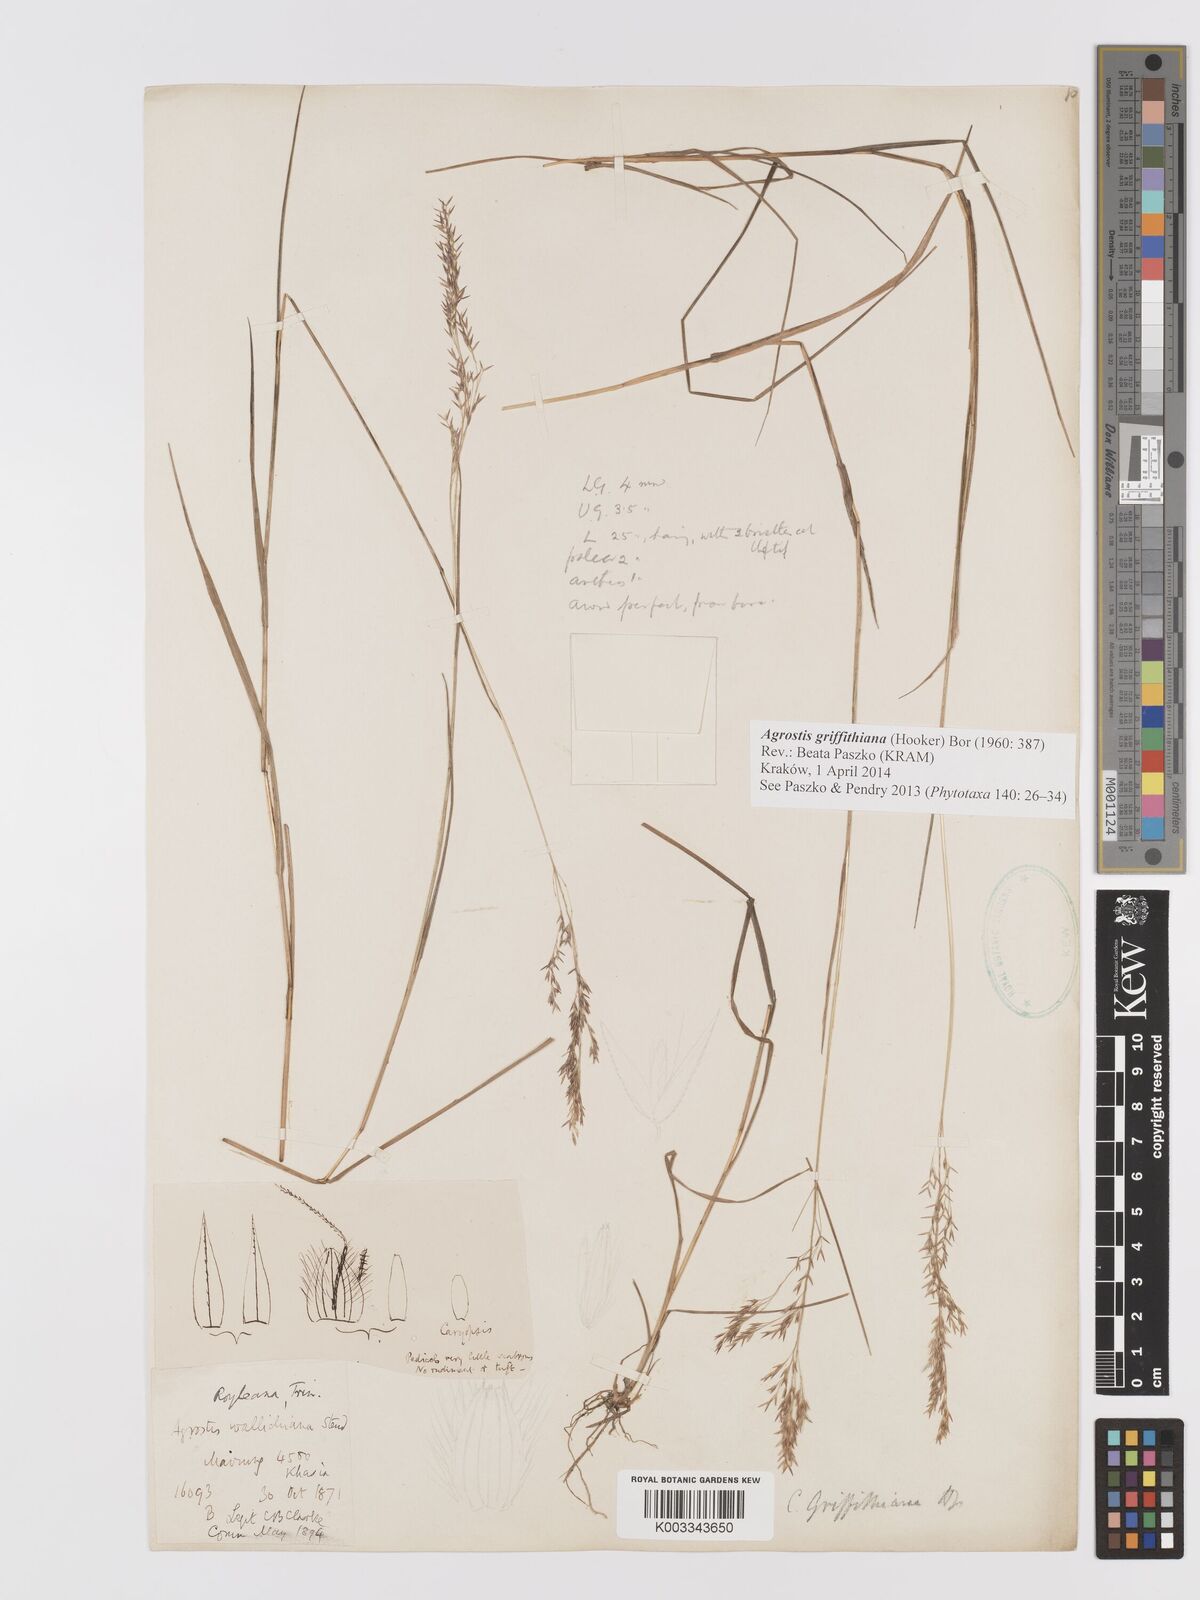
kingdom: Plantae
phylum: Tracheophyta
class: Liliopsida
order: Poales
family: Poaceae
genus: Agrostis
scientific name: Agrostis griffithiana
